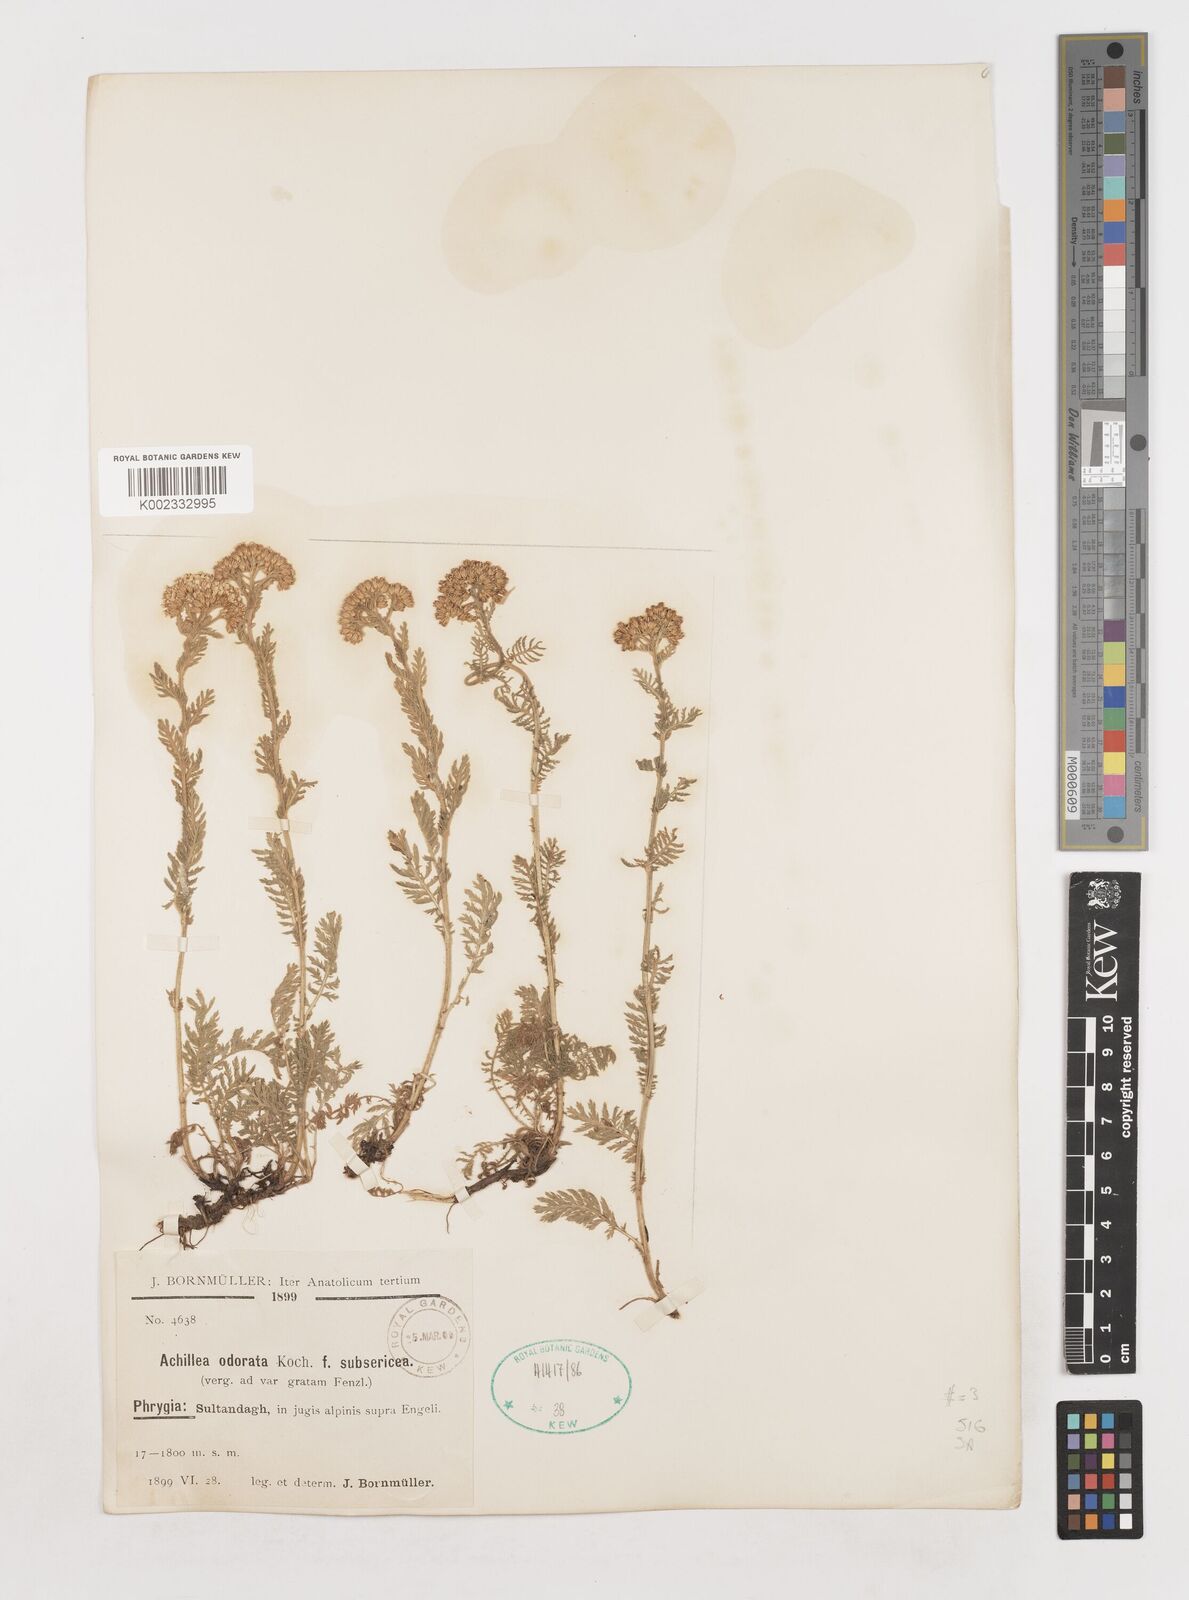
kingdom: Plantae
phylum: Tracheophyta
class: Magnoliopsida
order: Asterales
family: Asteraceae
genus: Achillea
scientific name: Achillea
